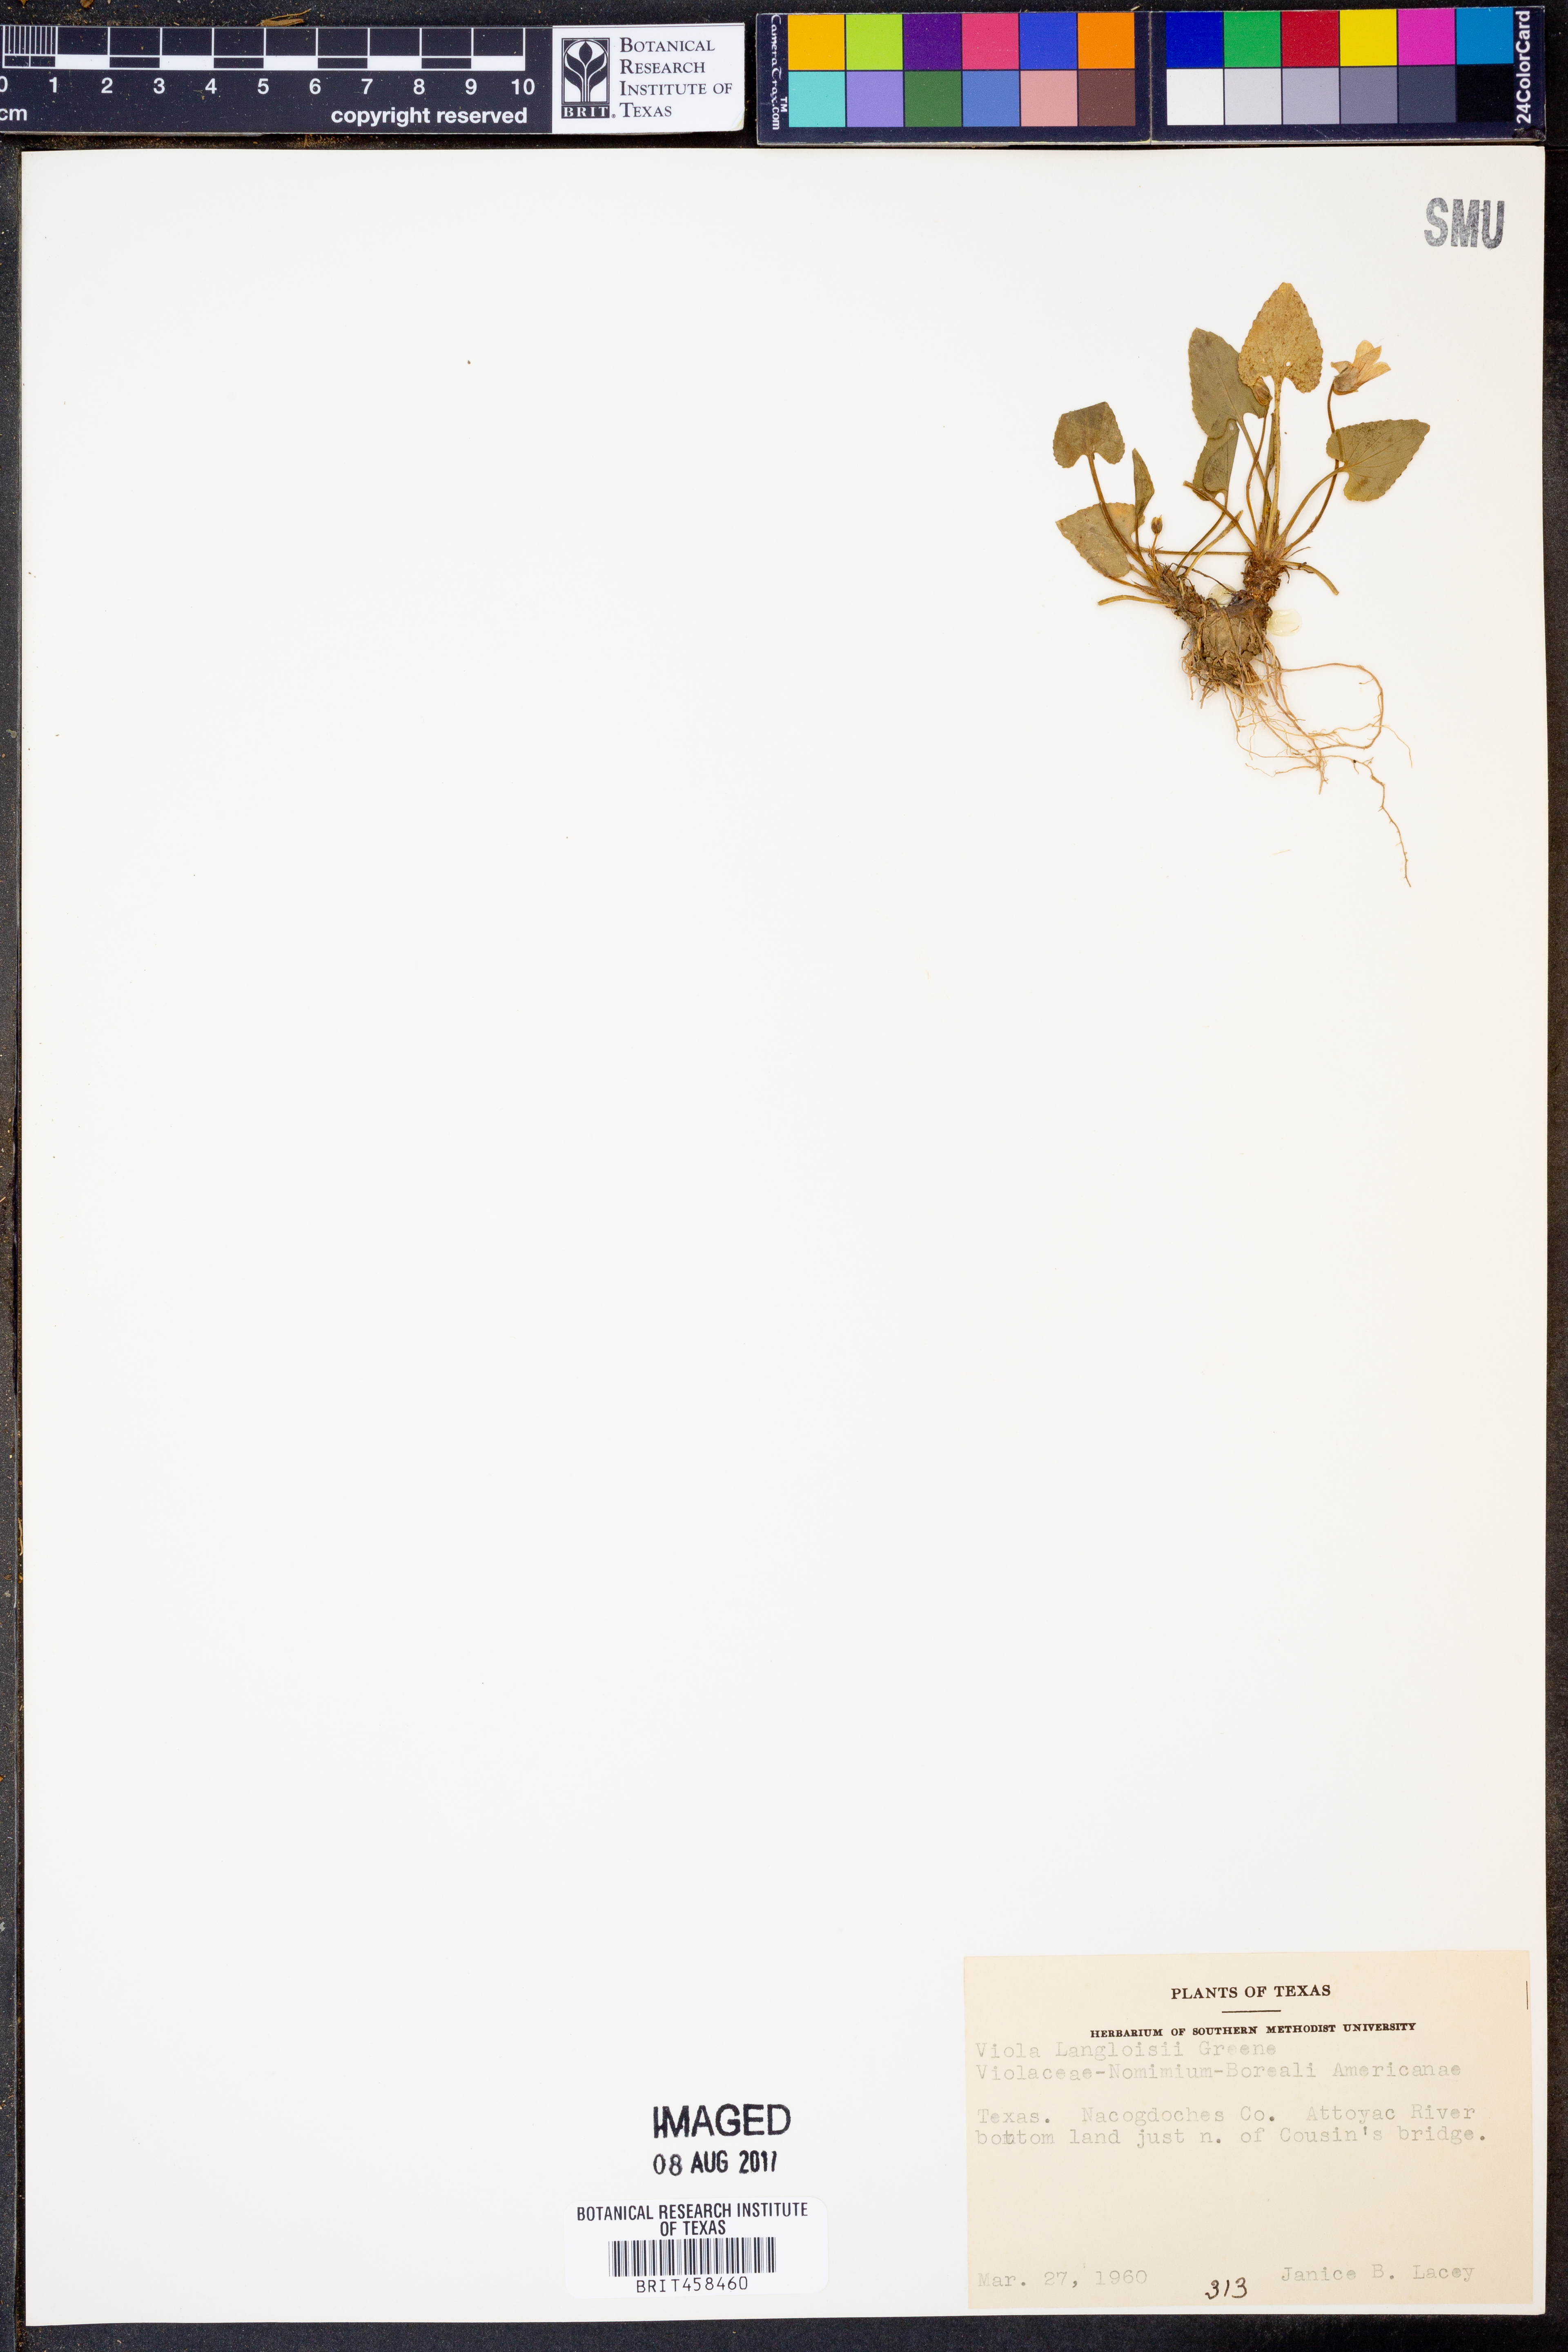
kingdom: Plantae
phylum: Tracheophyta
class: Magnoliopsida
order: Malpighiales
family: Violaceae
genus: Viola
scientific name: Viola langloisii
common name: Langlois' violet
